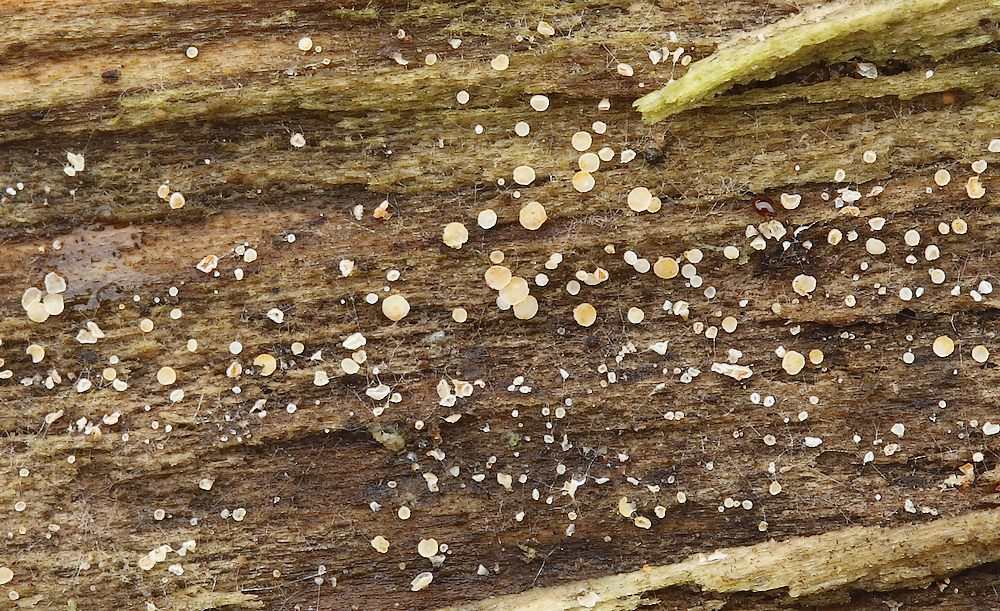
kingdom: Fungi
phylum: Ascomycota
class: Leotiomycetes
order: Helotiales
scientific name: Helotiales
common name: stilkskiveordenen
